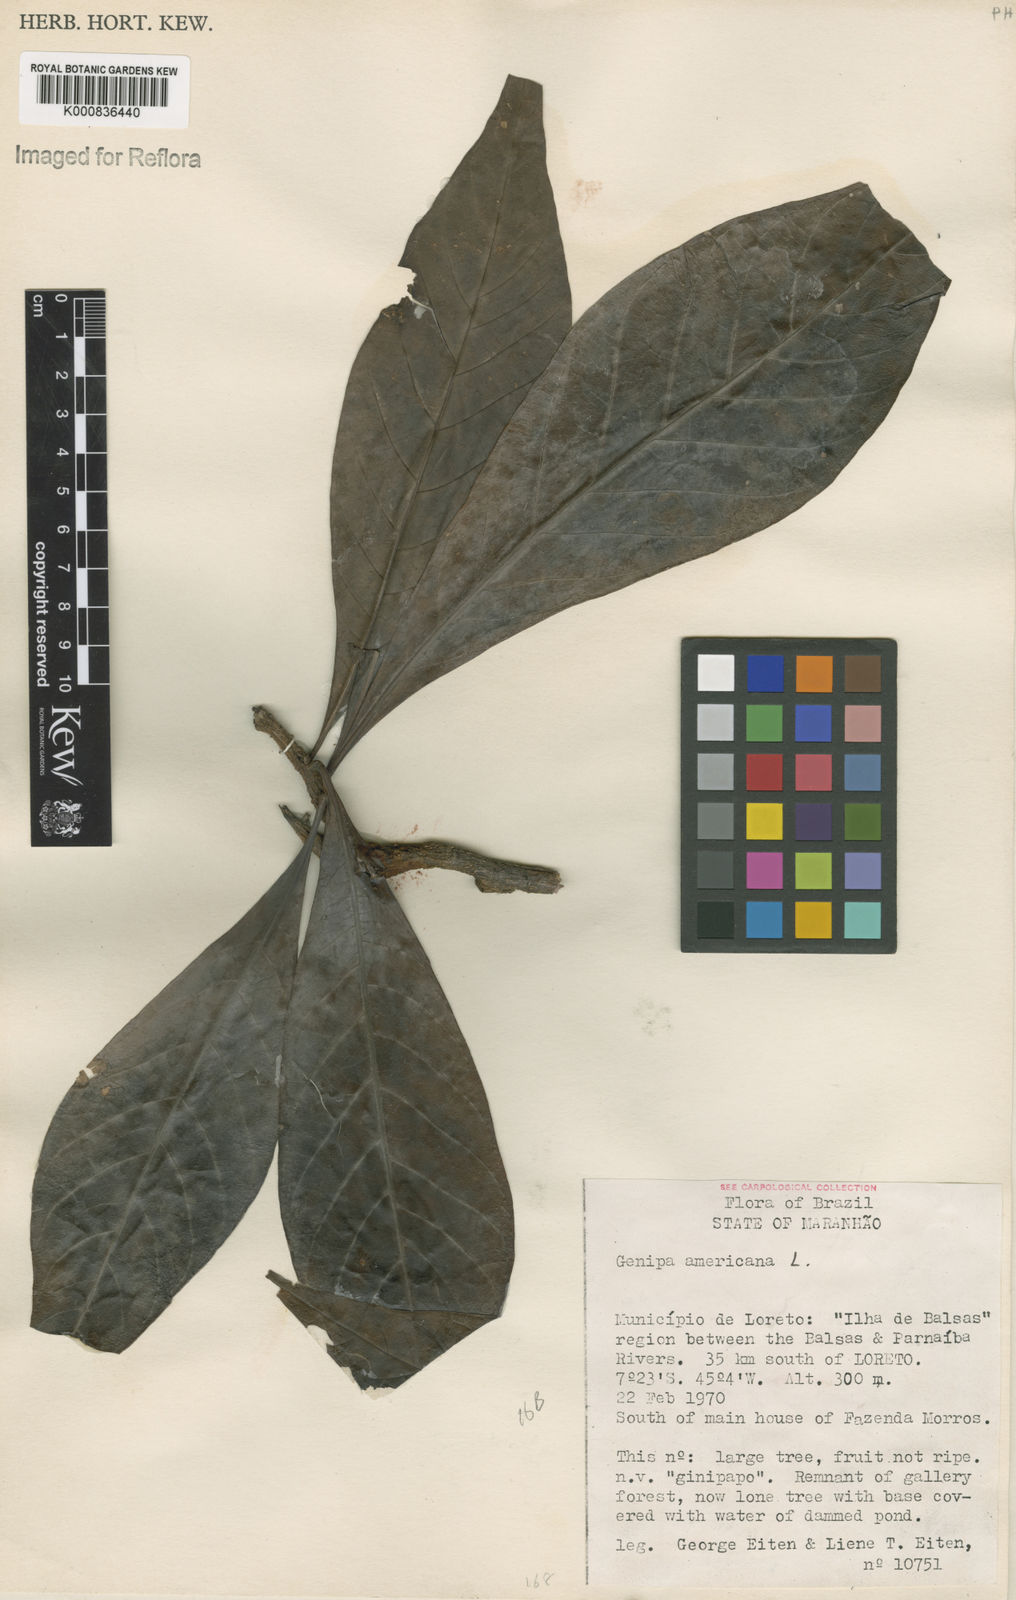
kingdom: Plantae
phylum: Tracheophyta
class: Magnoliopsida
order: Gentianales
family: Rubiaceae
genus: Genipa
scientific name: Genipa americana
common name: Genipap
